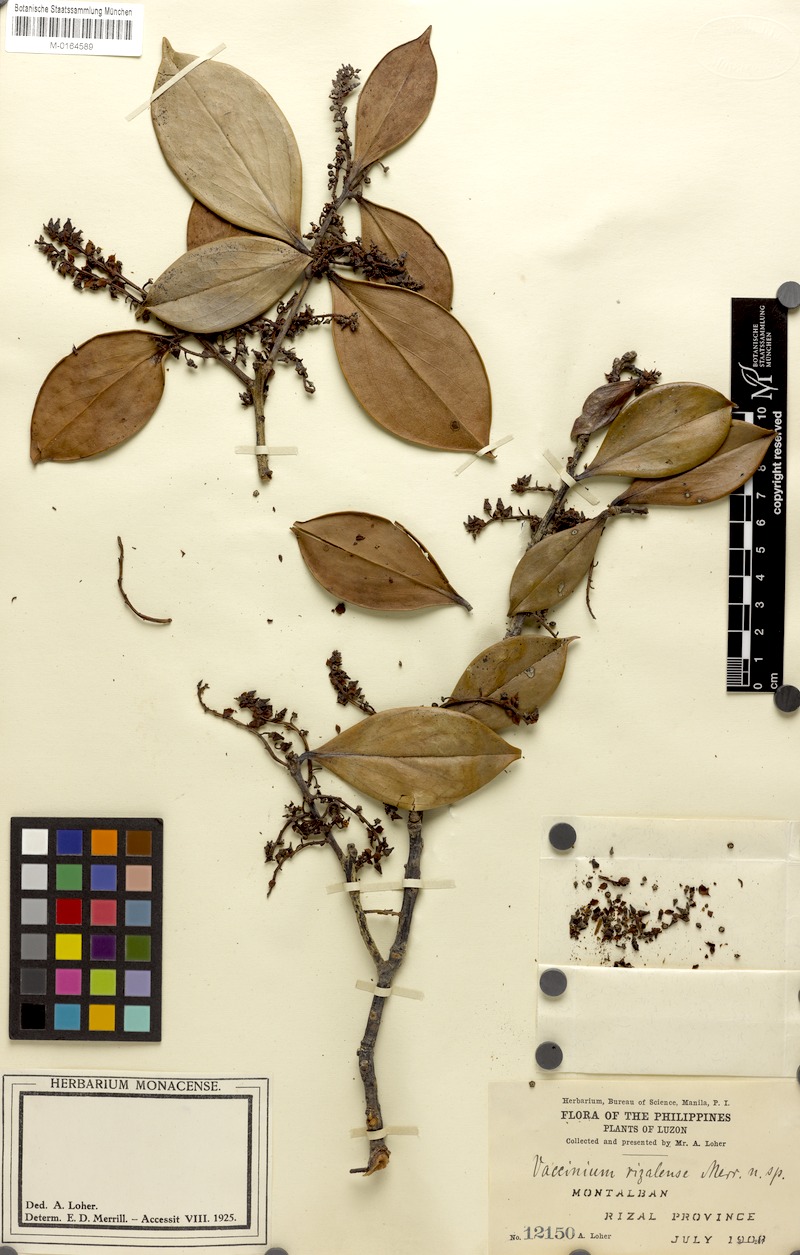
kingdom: Plantae
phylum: Tracheophyta
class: Magnoliopsida
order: Ericales
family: Ericaceae
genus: Vaccinium
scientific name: Vaccinium platyphyllum
